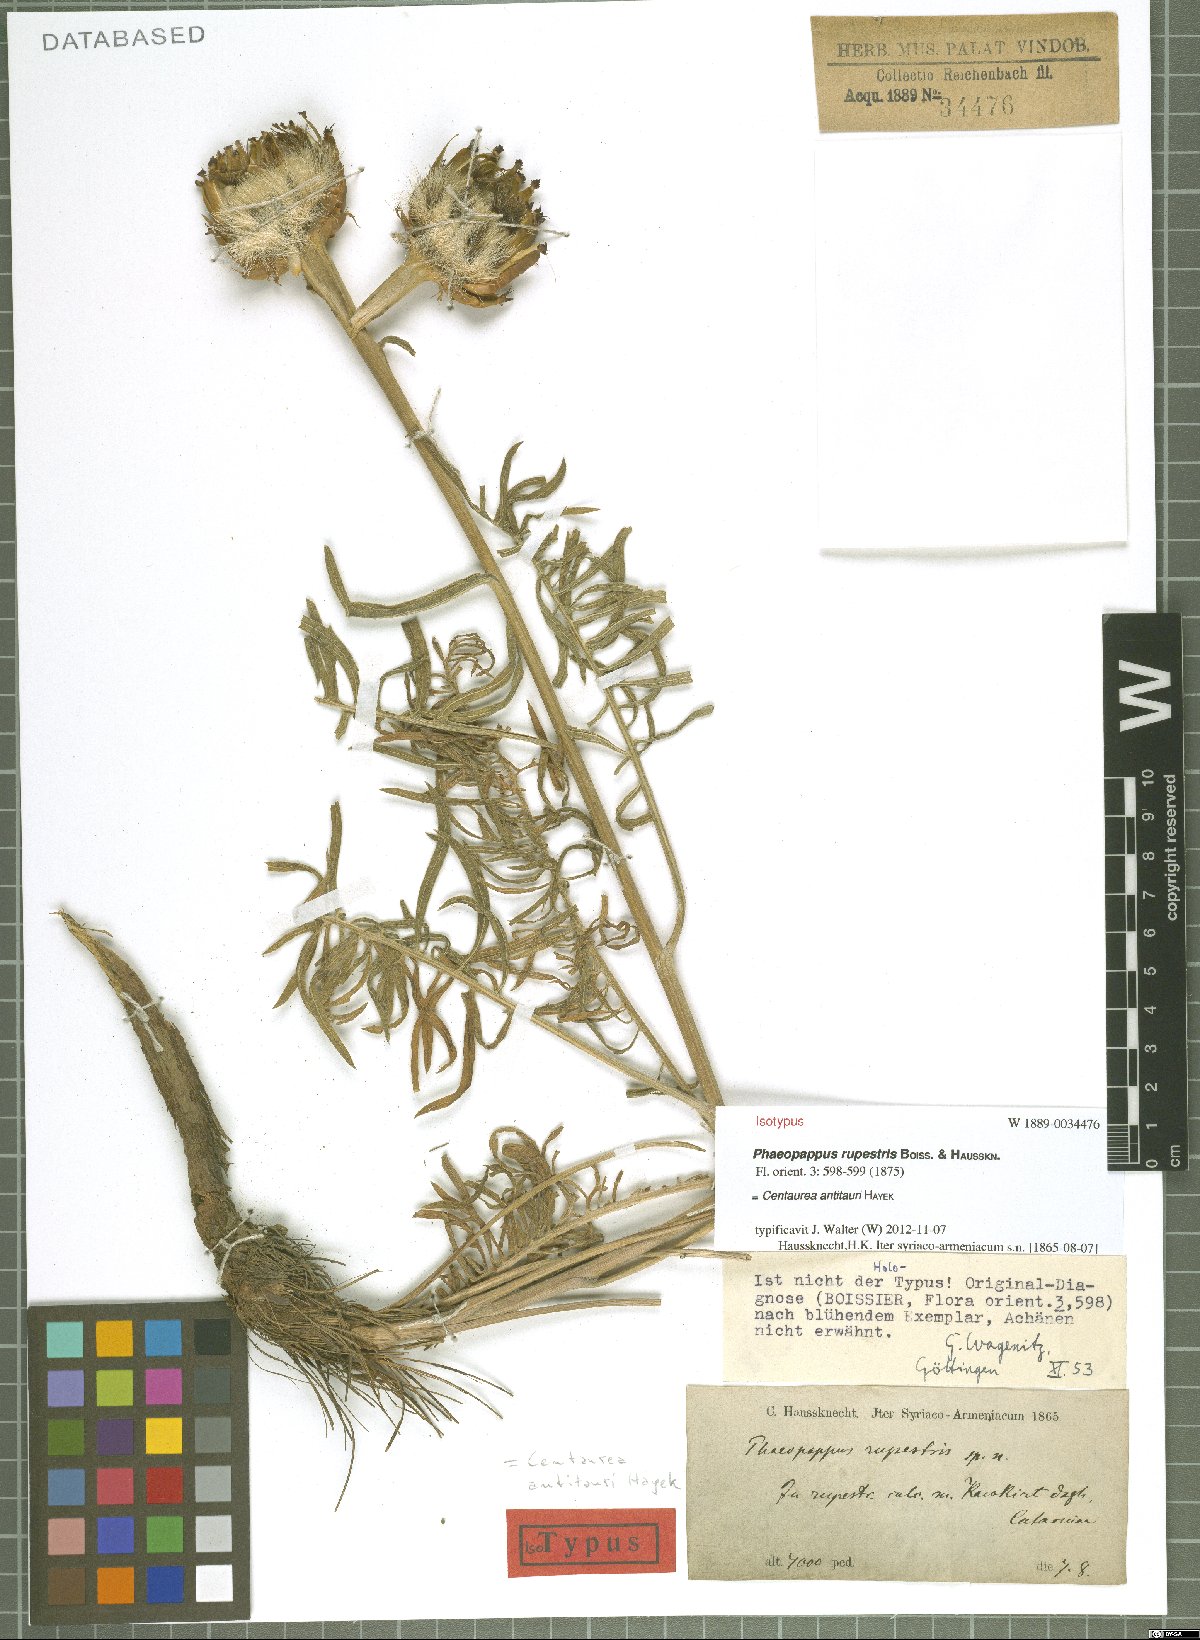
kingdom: Plantae
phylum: Tracheophyta
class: Magnoliopsida
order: Asterales
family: Asteraceae
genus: Centaurea
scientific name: Centaurea antitauri
